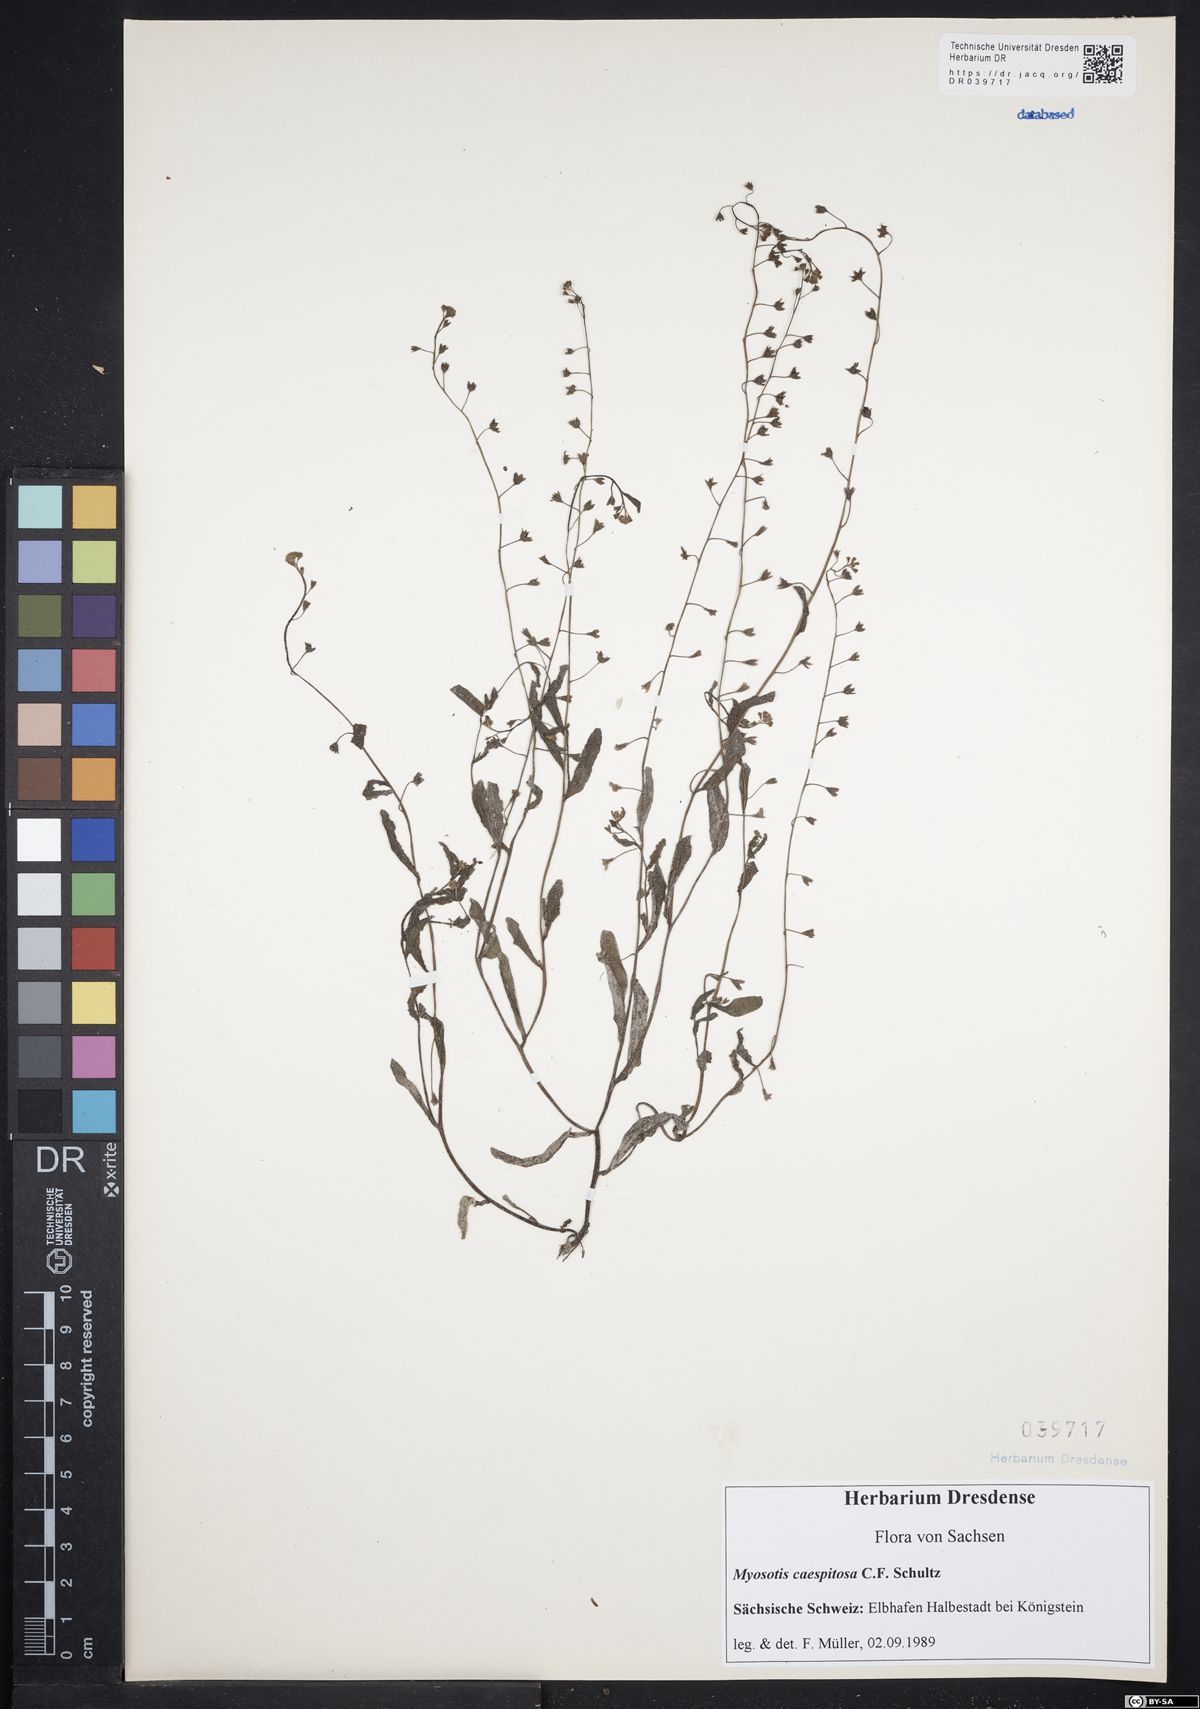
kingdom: Plantae
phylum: Tracheophyta
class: Magnoliopsida
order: Boraginales
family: Boraginaceae
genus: Myosotis
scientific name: Myosotis laxa
